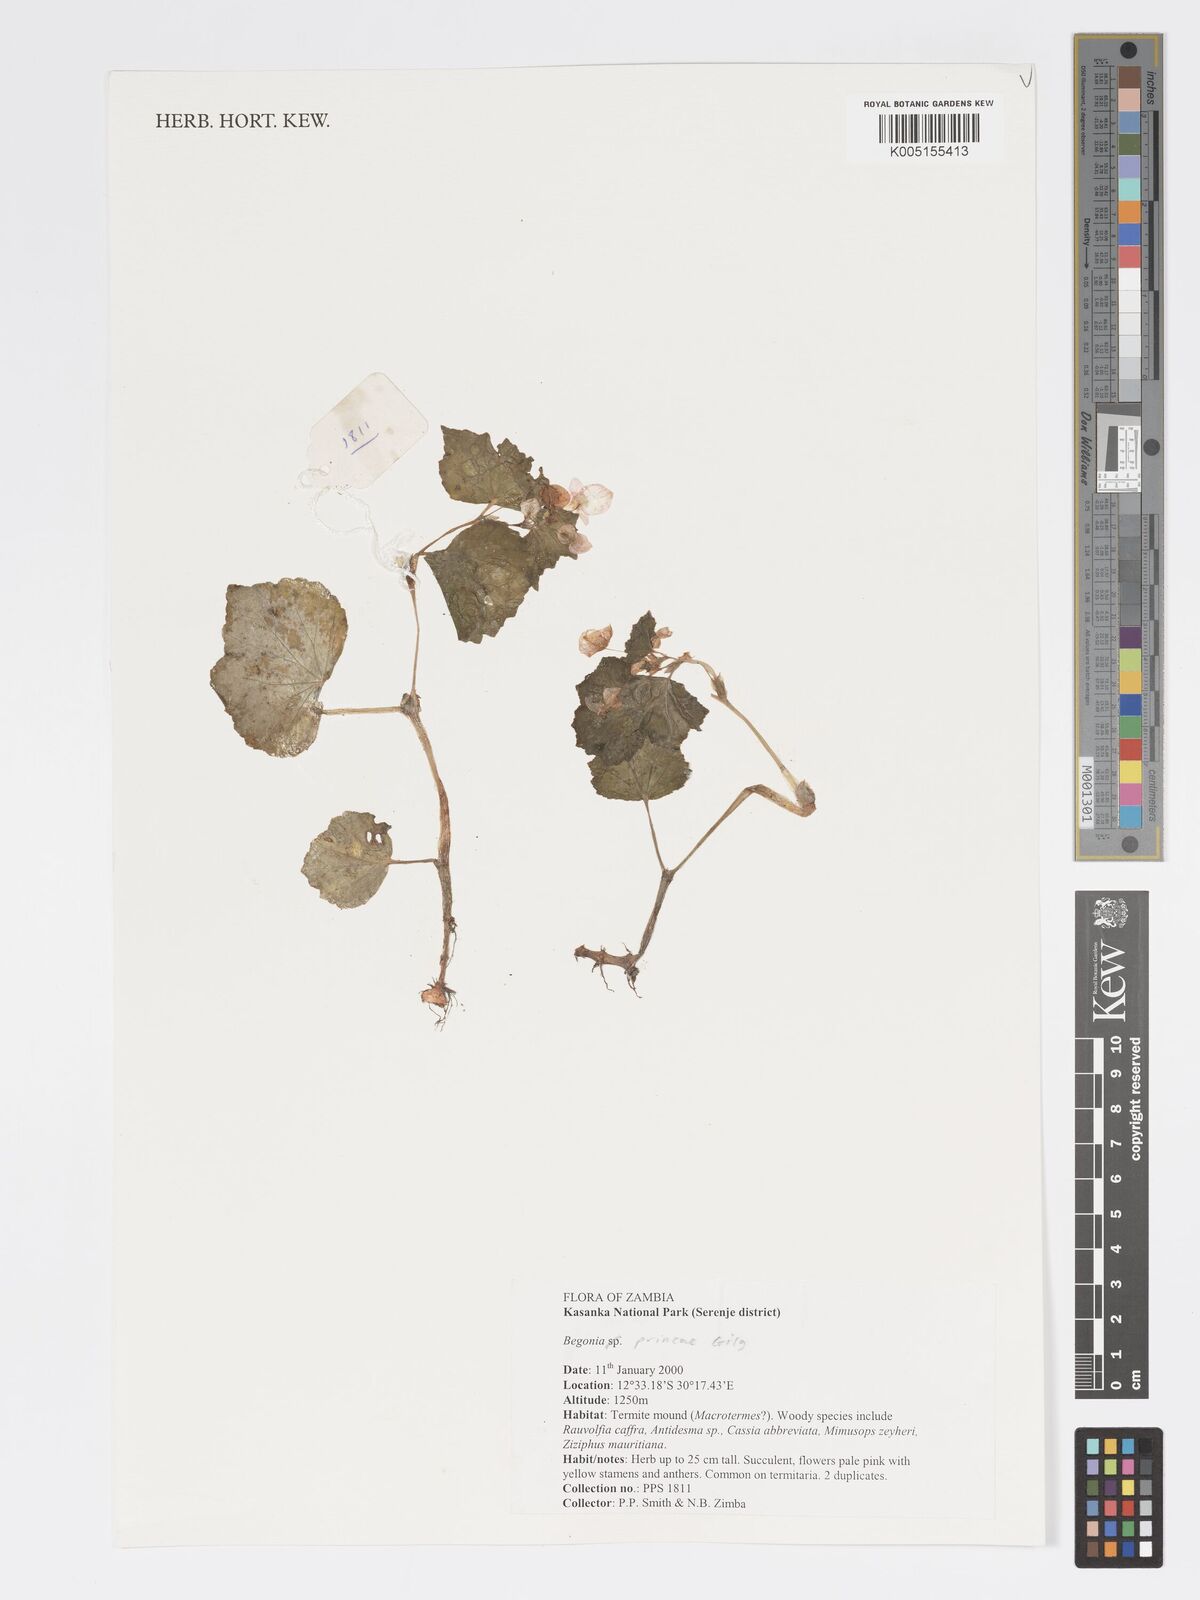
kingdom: Plantae
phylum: Tracheophyta
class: Magnoliopsida
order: Cucurbitales
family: Begoniaceae
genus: Begonia
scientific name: Begonia princeae
